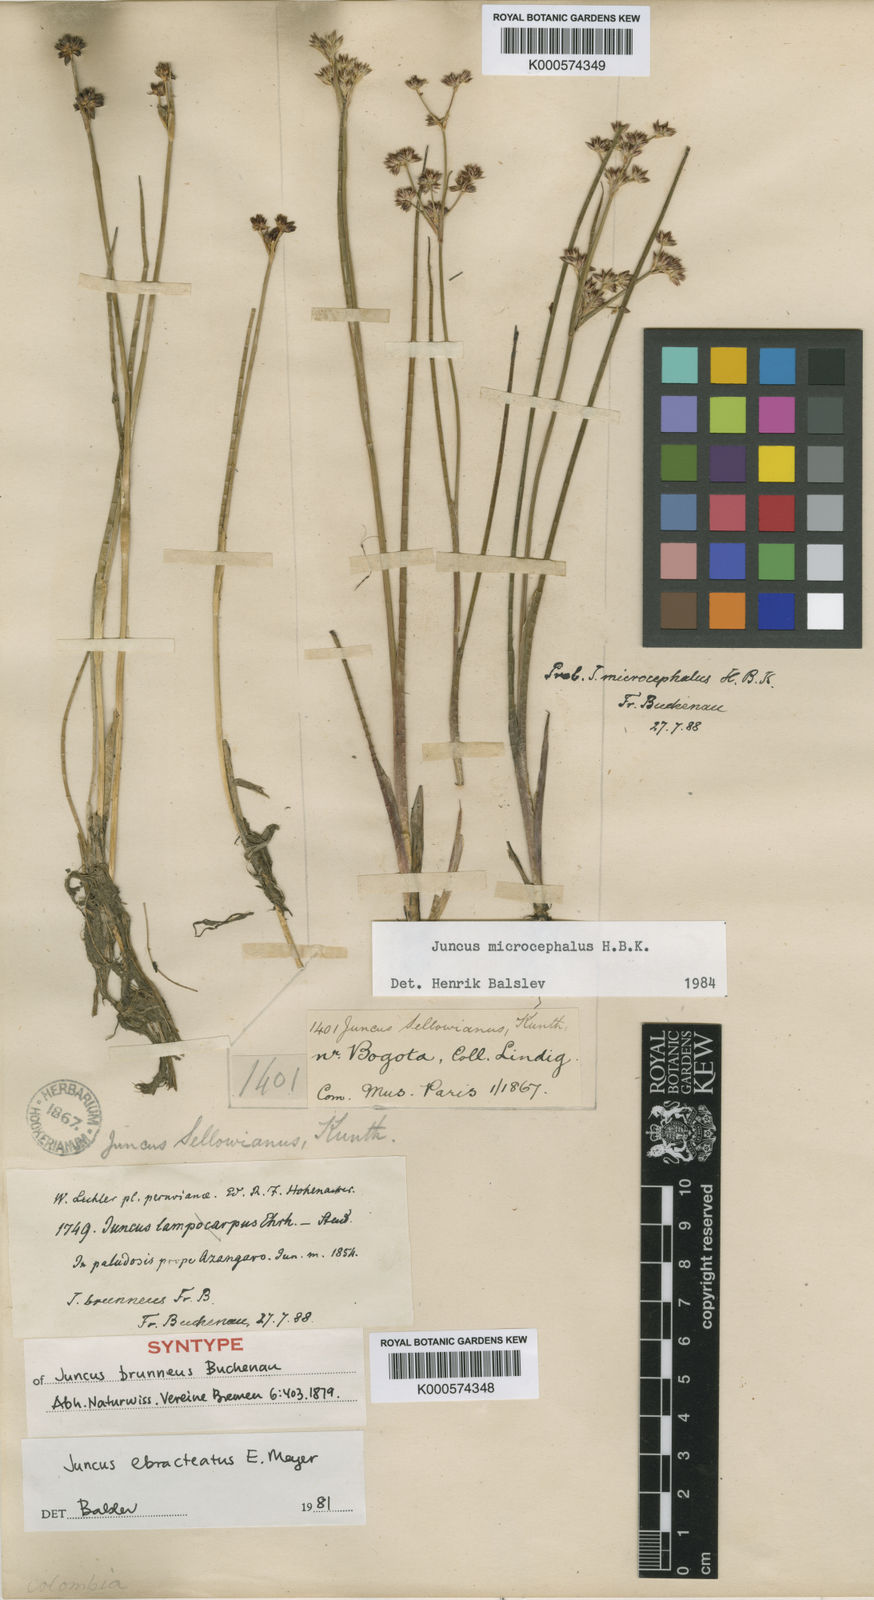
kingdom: Plantae
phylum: Tracheophyta
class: Liliopsida
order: Poales
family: Juncaceae
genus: Juncus
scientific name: Juncus ebracteatus
